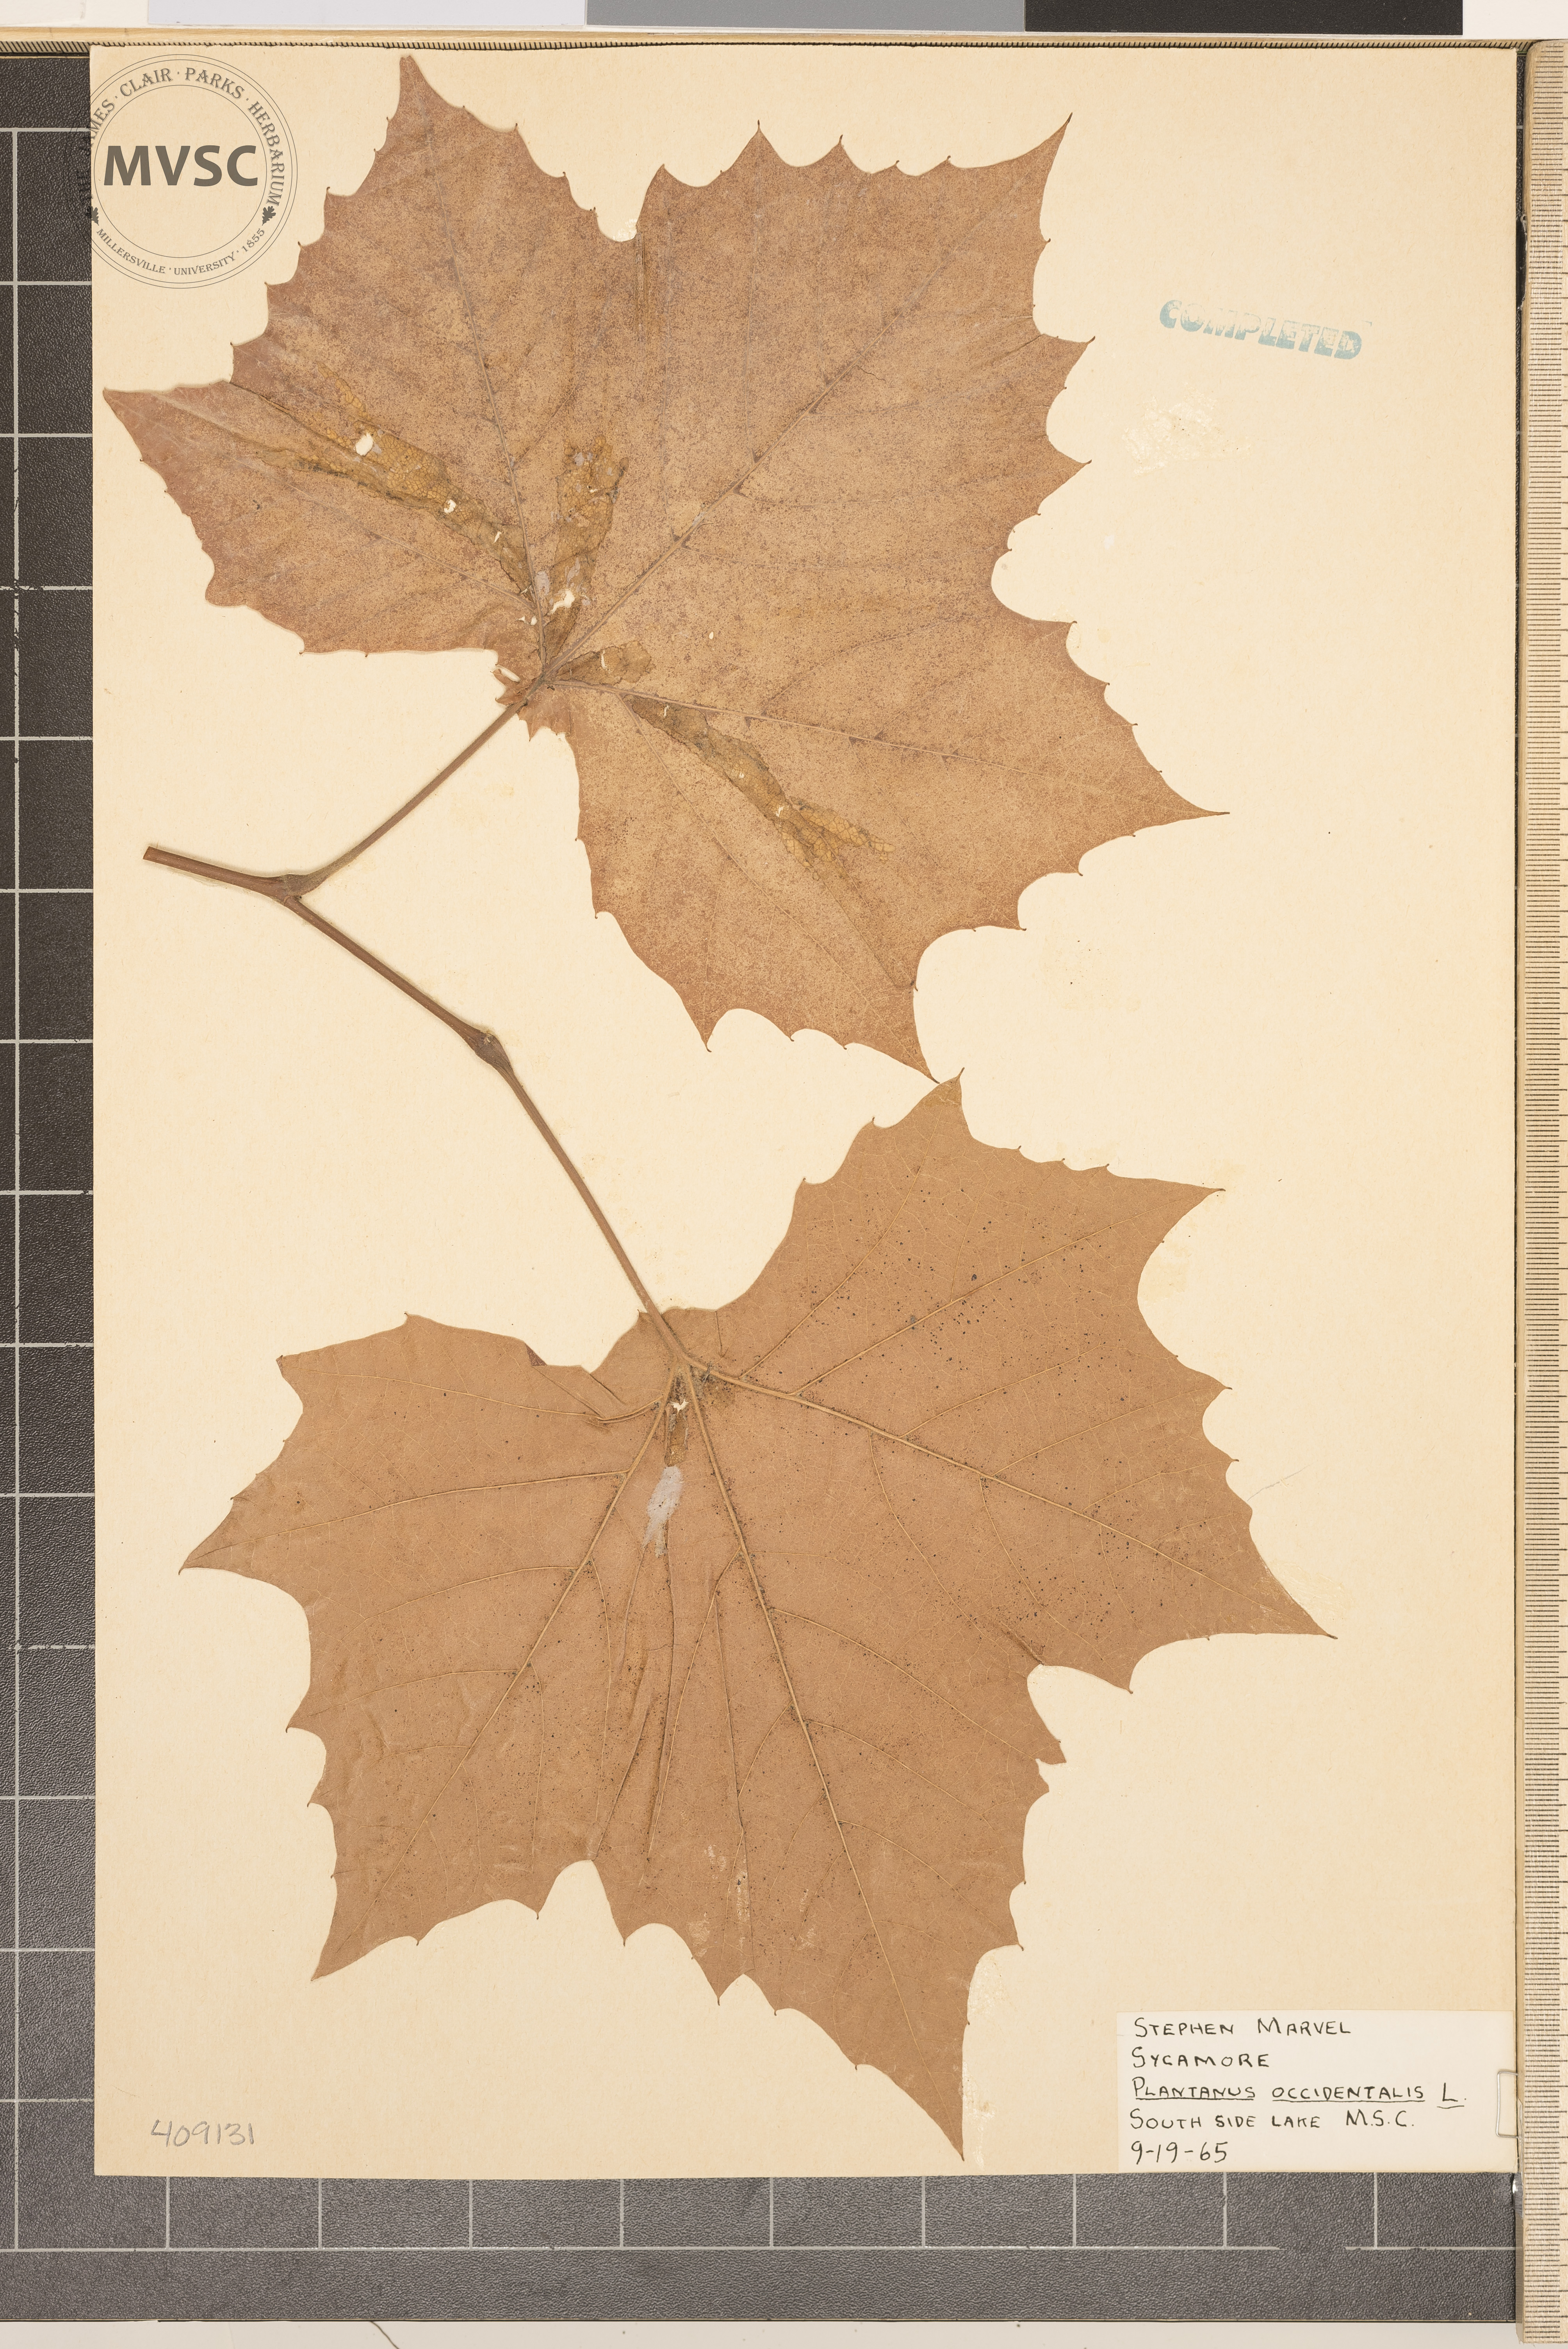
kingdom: Plantae
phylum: Tracheophyta
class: Magnoliopsida
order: Proteales
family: Platanaceae
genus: Platanus
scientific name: Platanus occidentalis
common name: American sycamore
